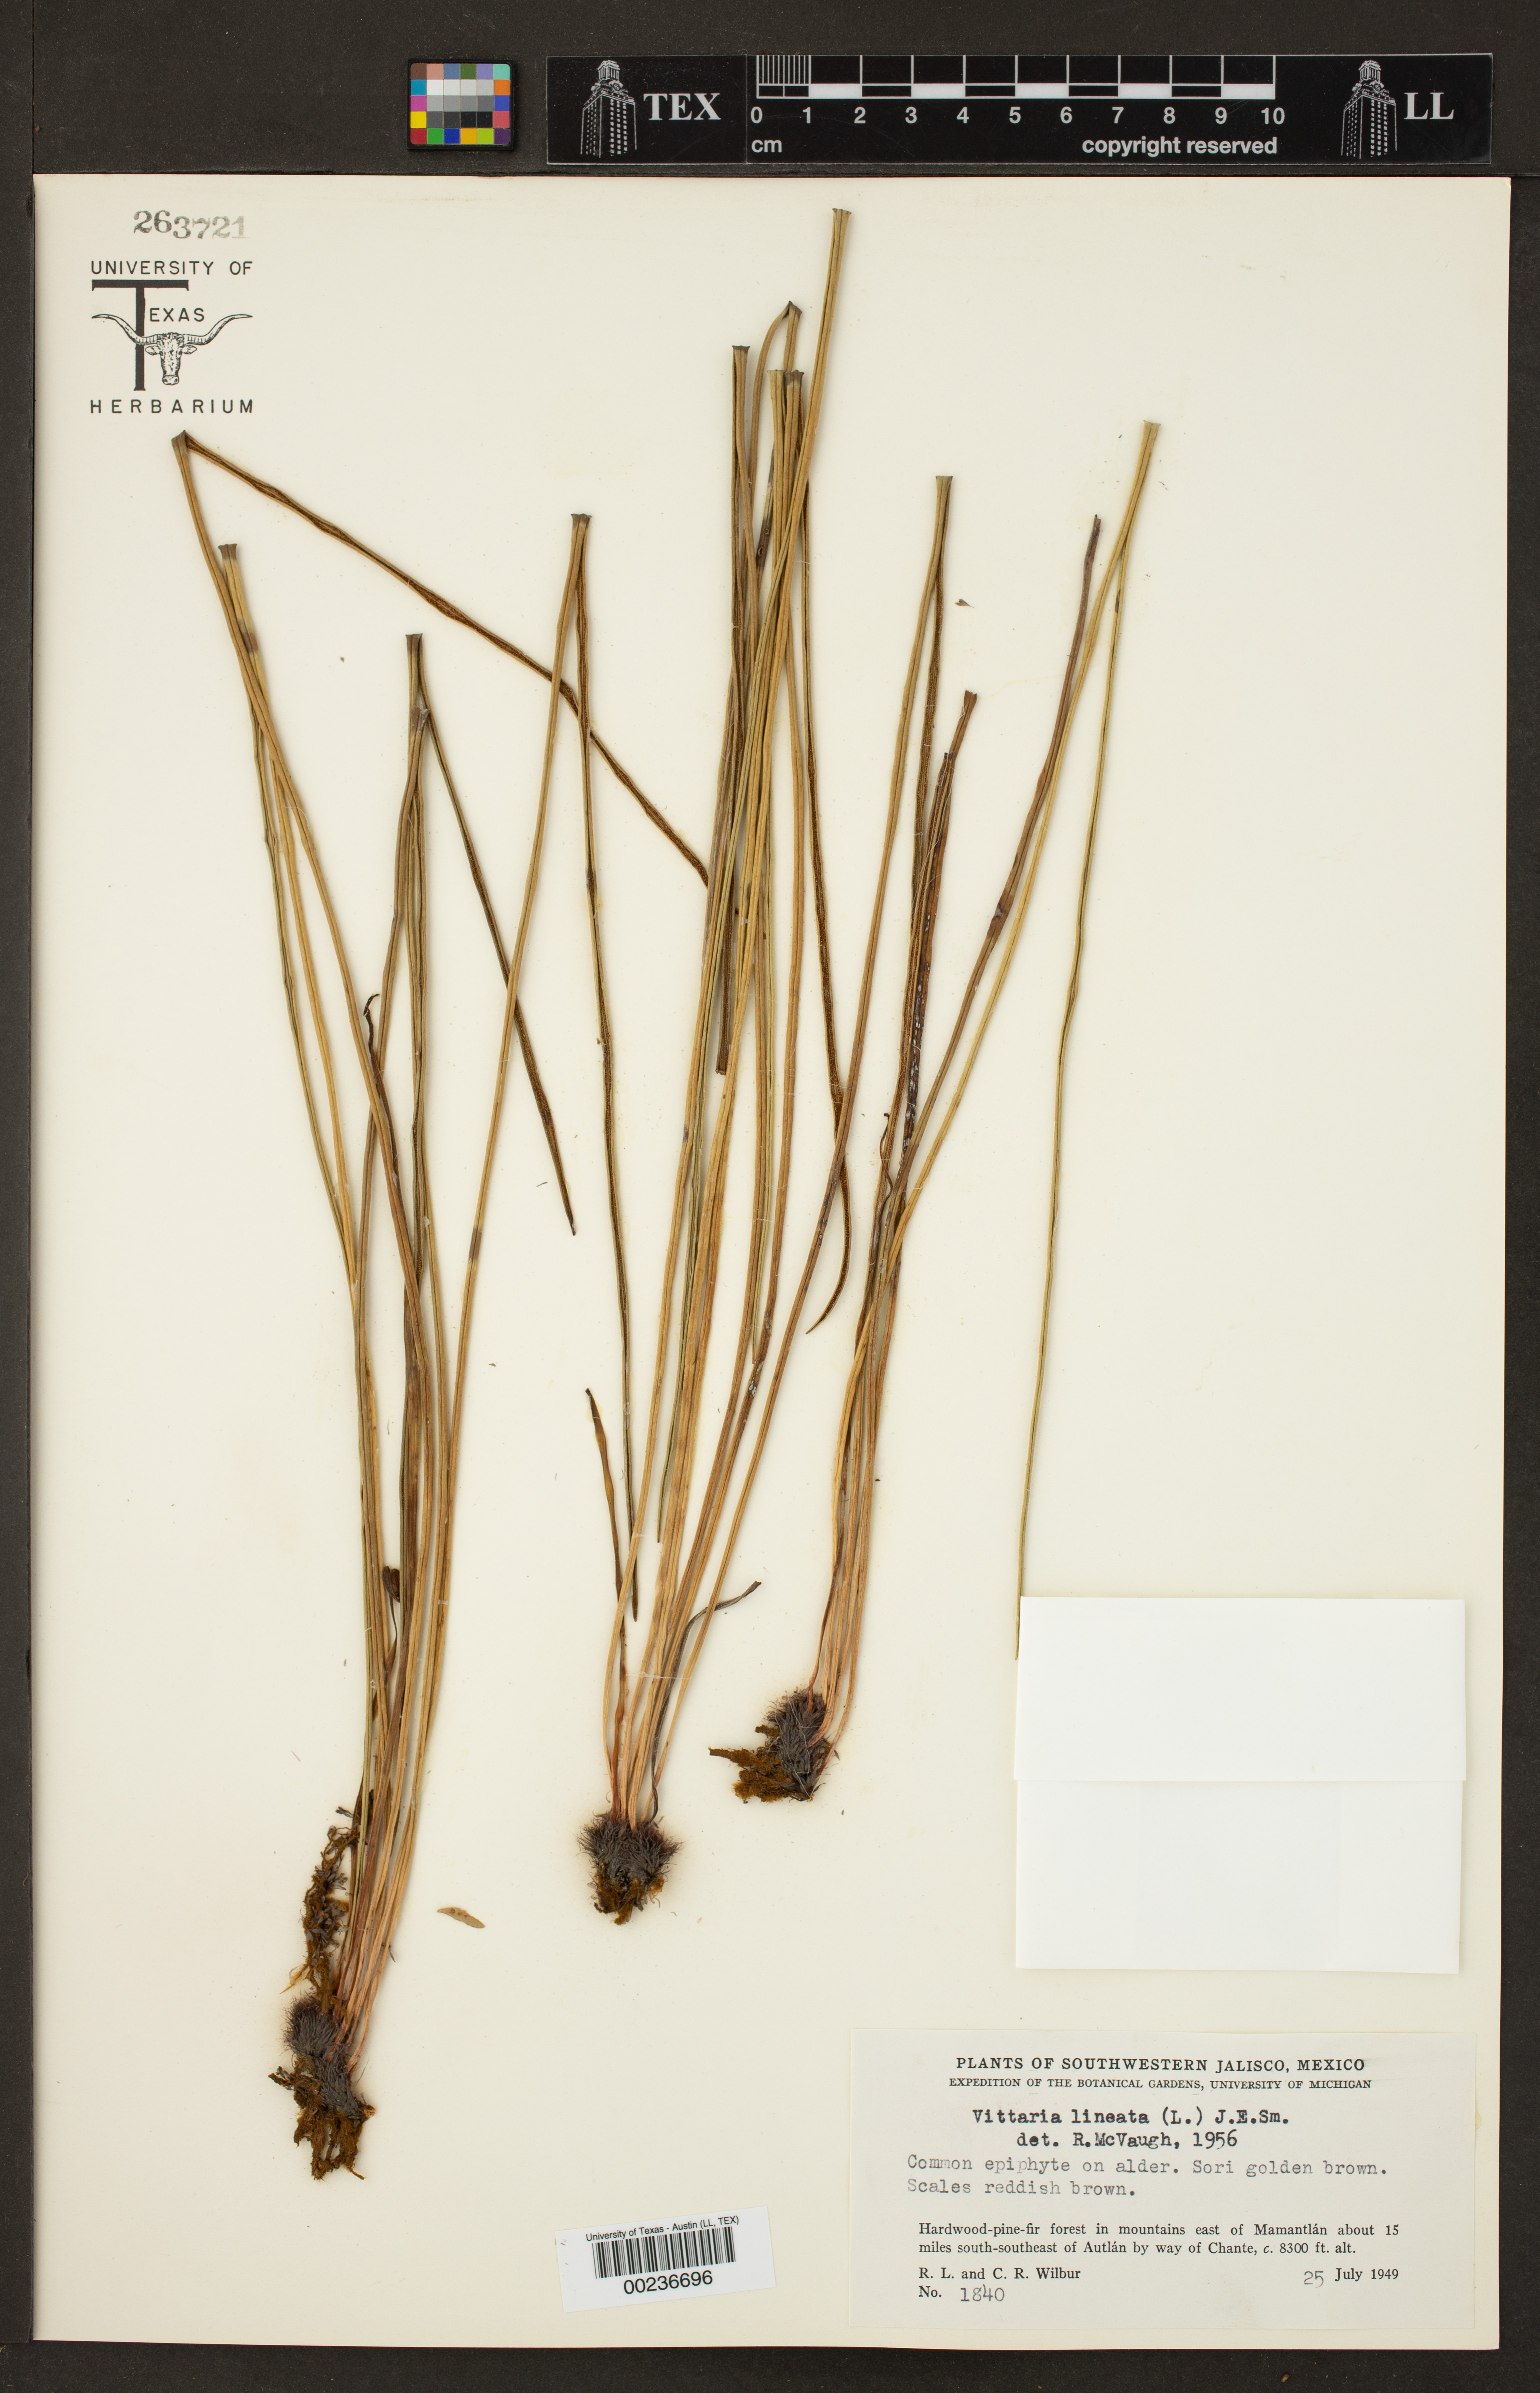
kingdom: Plantae
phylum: Tracheophyta
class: Polypodiopsida
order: Polypodiales
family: Pteridaceae
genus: Vittaria
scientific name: Vittaria lineata
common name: Shoestring fern
